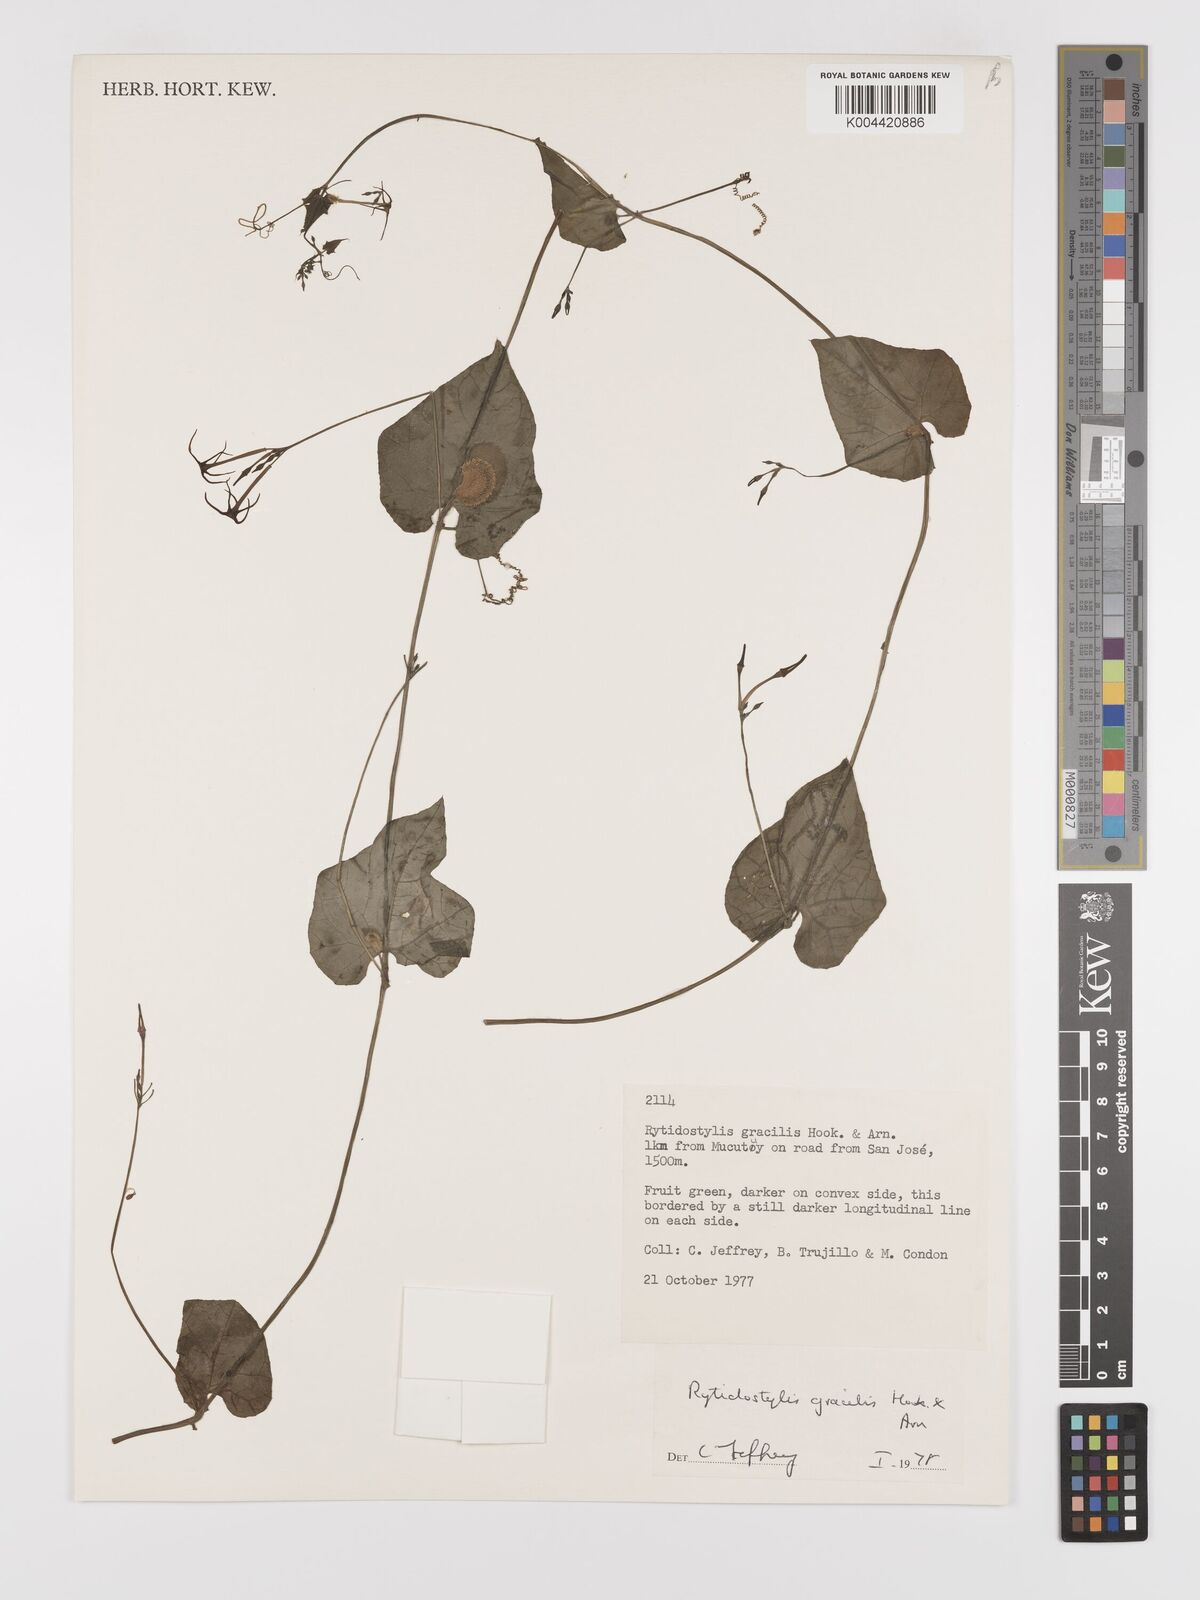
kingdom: Plantae
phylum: Tracheophyta
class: Magnoliopsida
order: Cucurbitales
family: Cucurbitaceae
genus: Cyclanthera
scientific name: Cyclanthera filiformis
